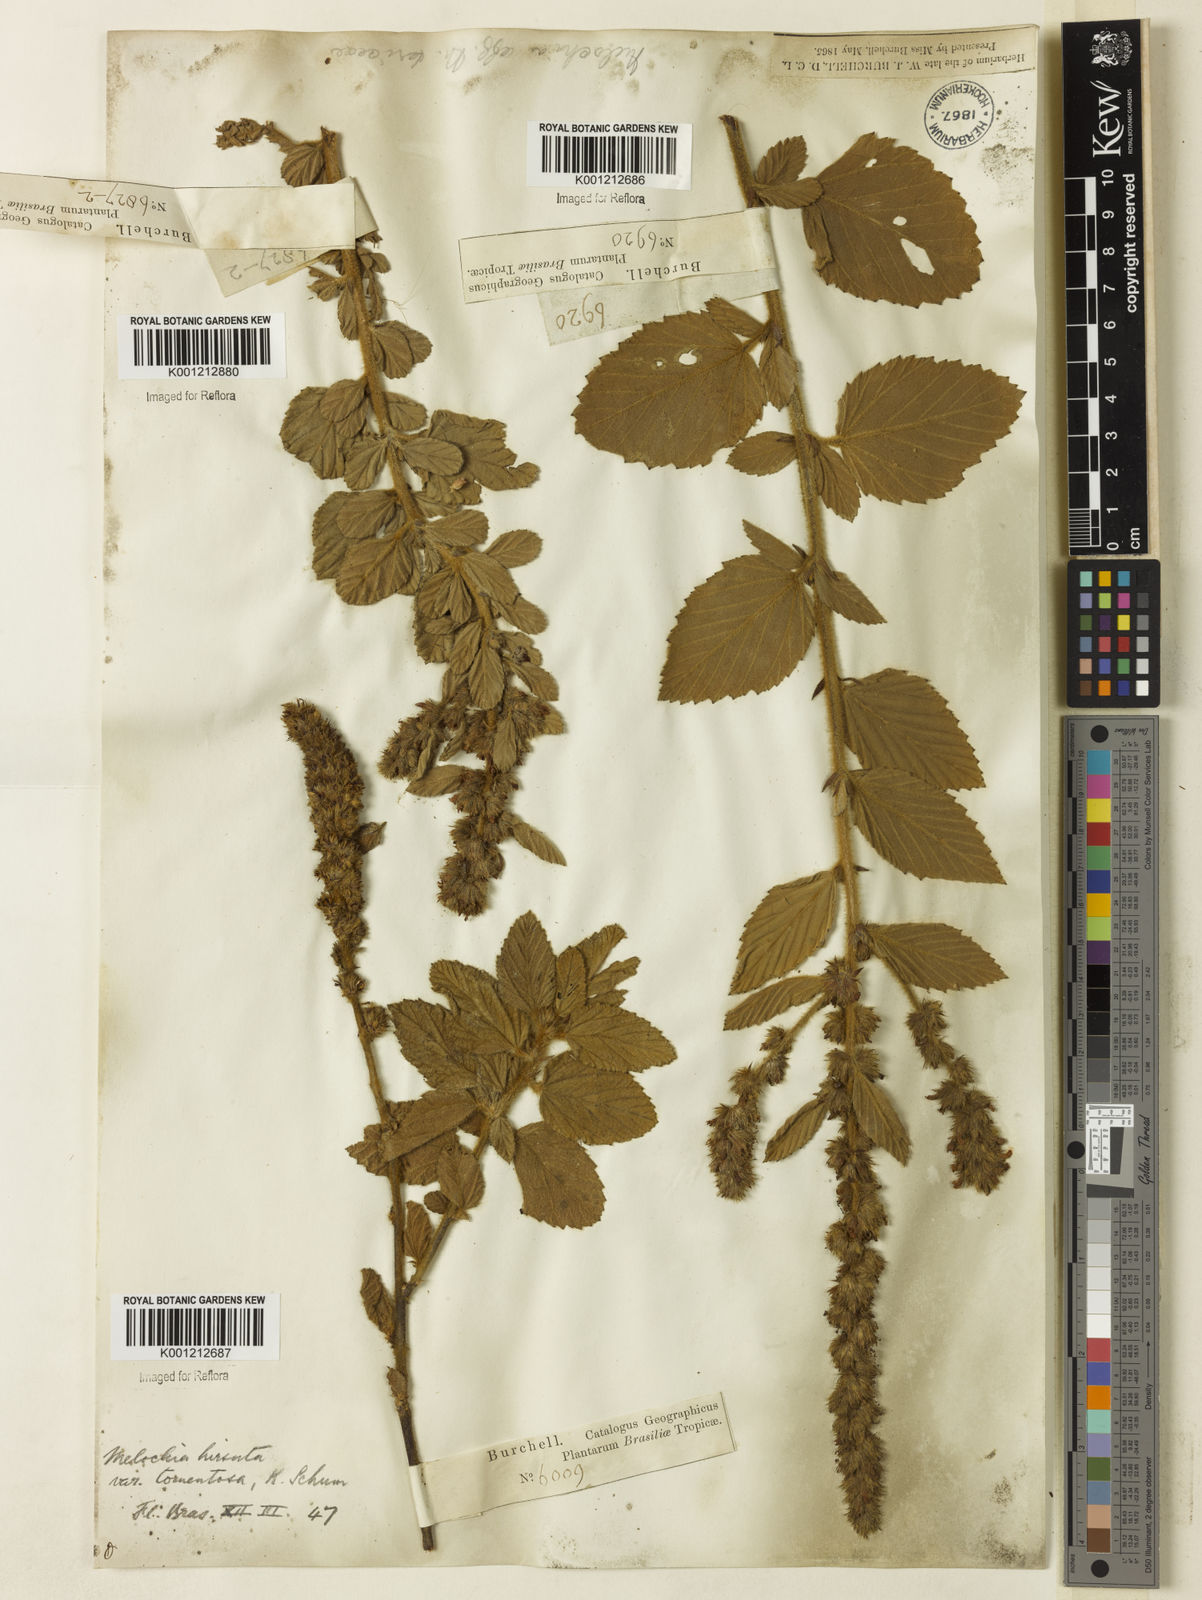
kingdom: Plantae
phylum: Tracheophyta
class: Magnoliopsida
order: Malvales
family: Malvaceae
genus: Melochia
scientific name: Melochia spicata
